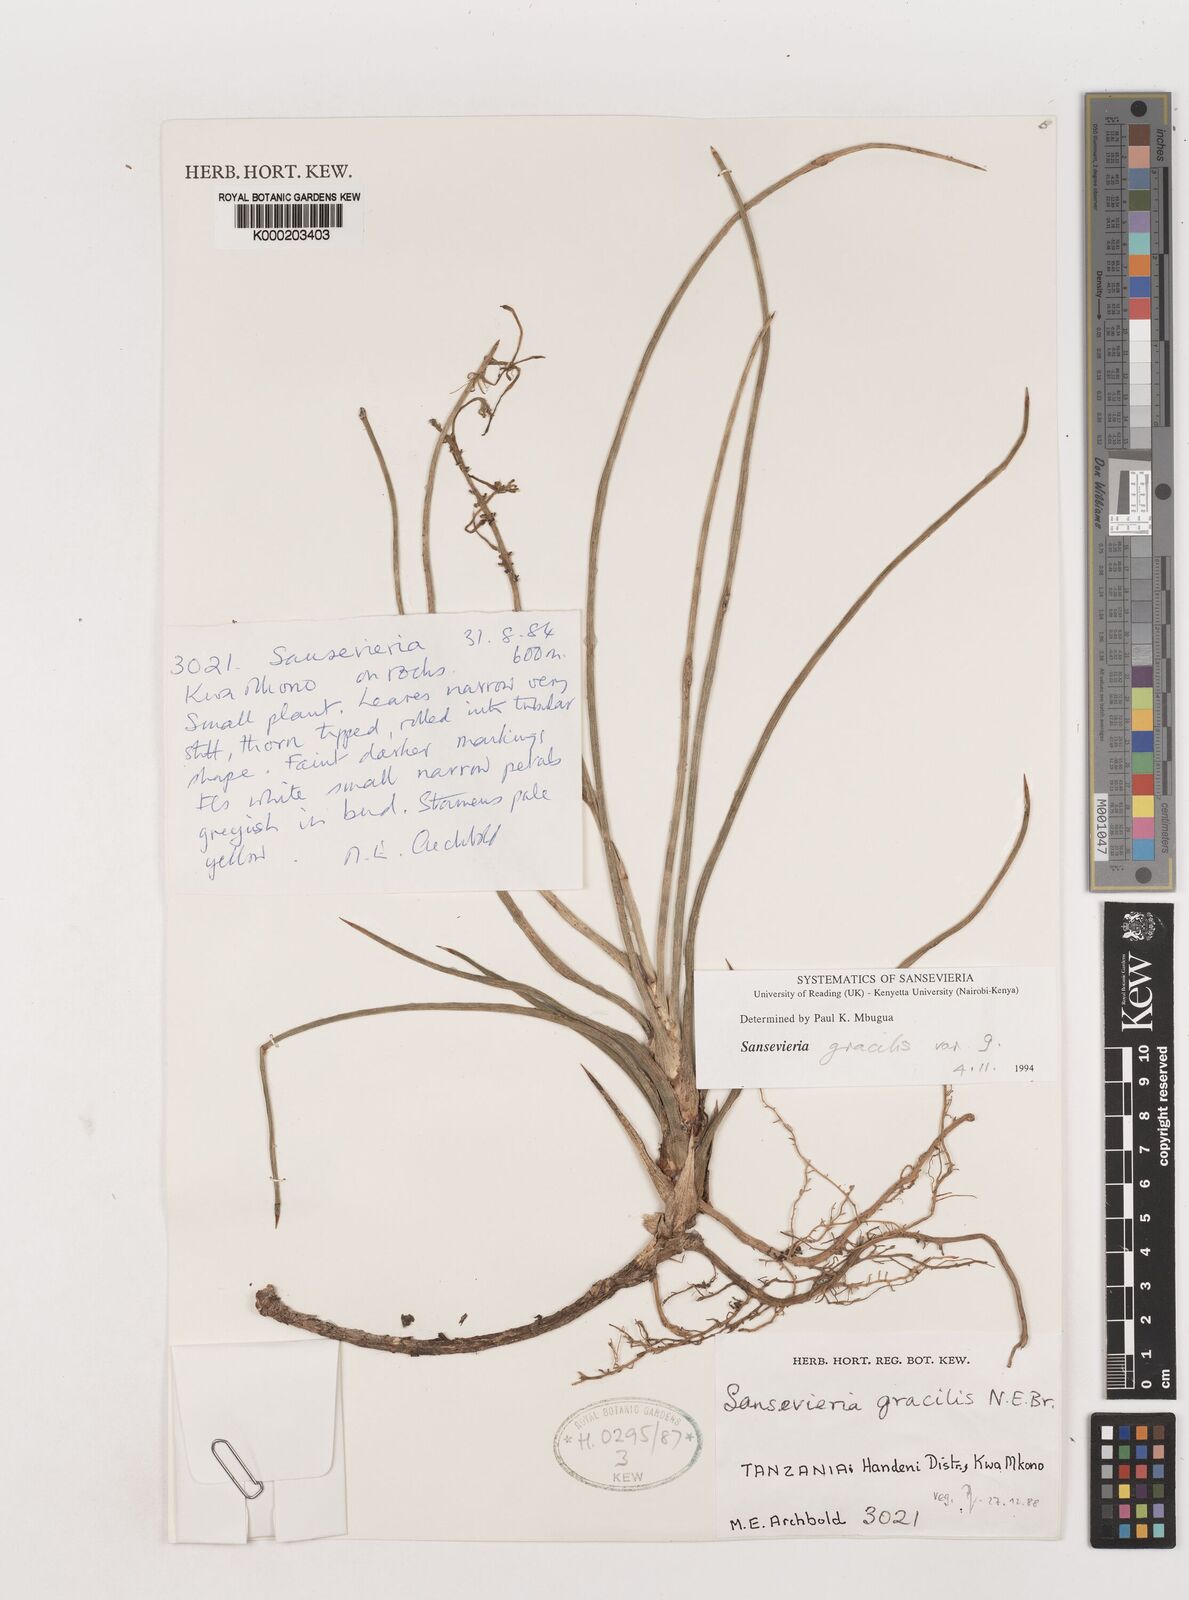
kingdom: Plantae
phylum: Tracheophyta
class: Liliopsida
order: Asparagales
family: Asparagaceae
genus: Dracaena
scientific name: Dracaena serpenta
